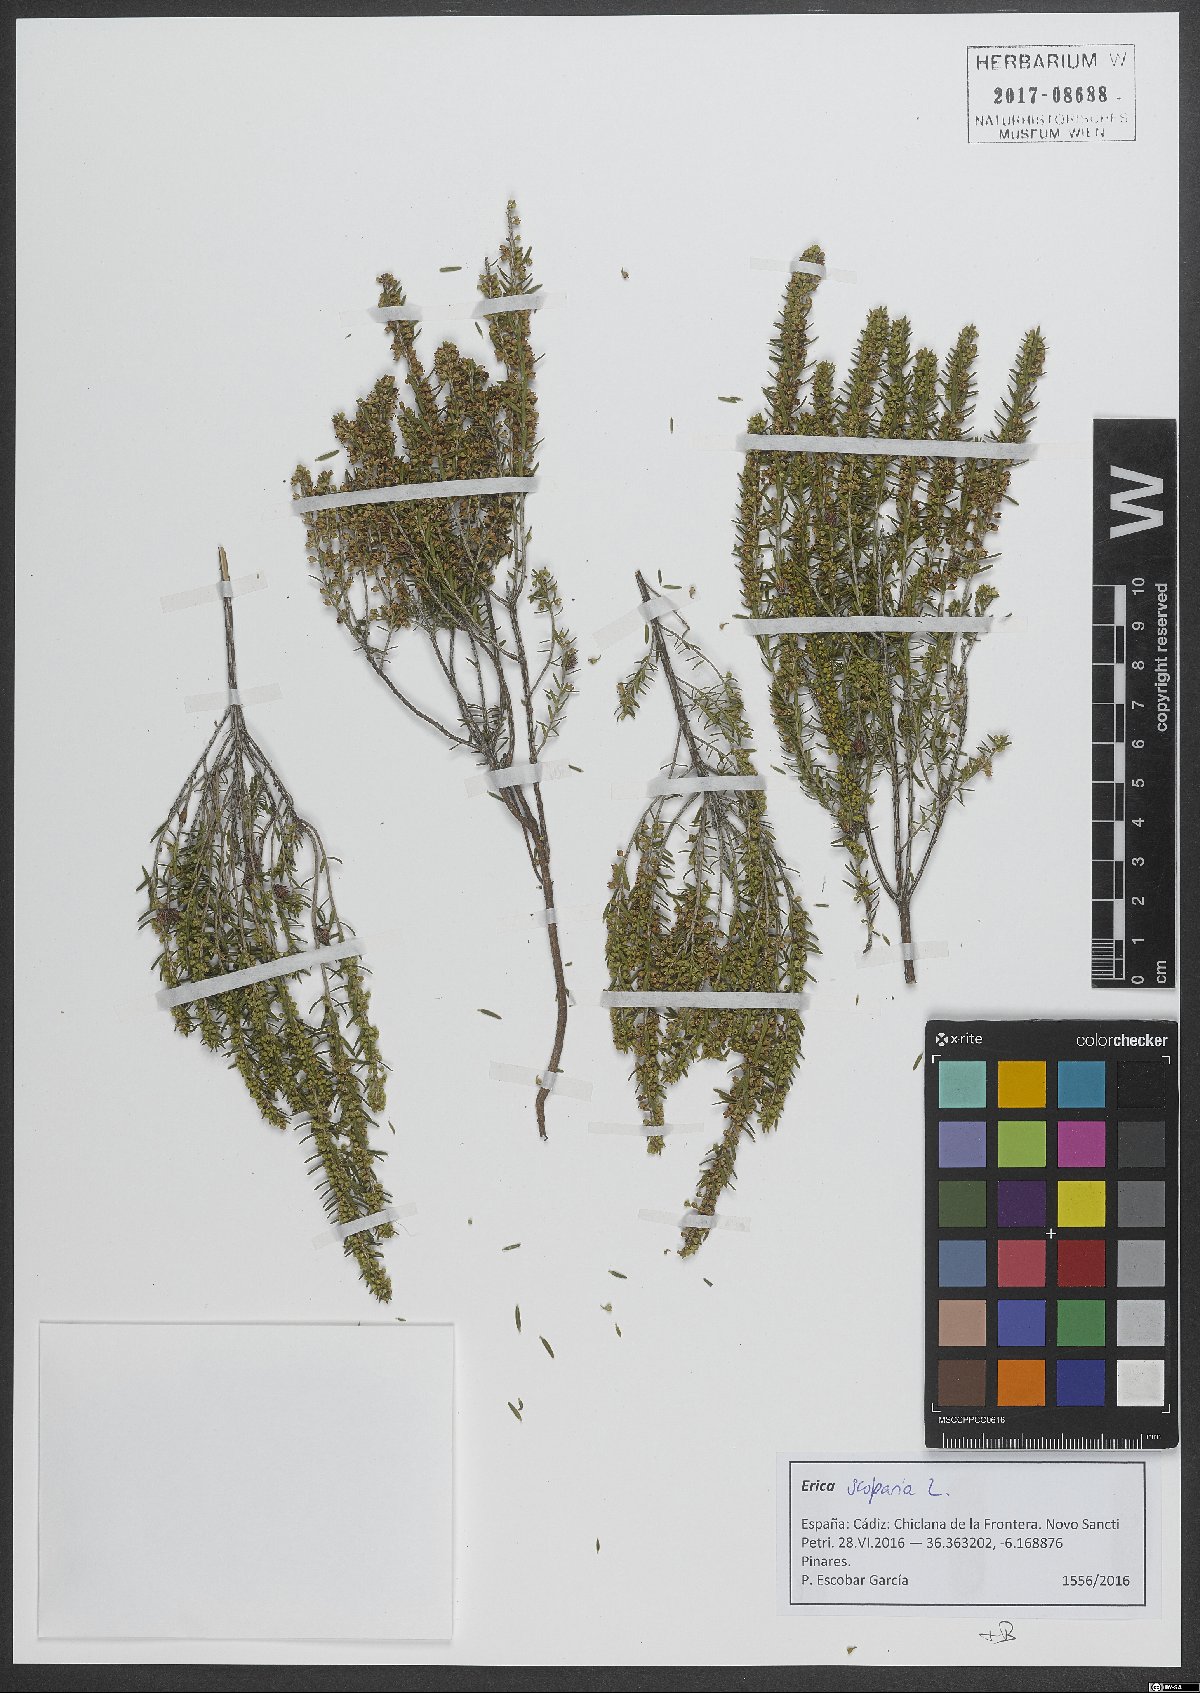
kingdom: Plantae
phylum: Tracheophyta
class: Magnoliopsida
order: Ericales
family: Ericaceae
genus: Erica
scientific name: Erica scoparia
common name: Green heather
